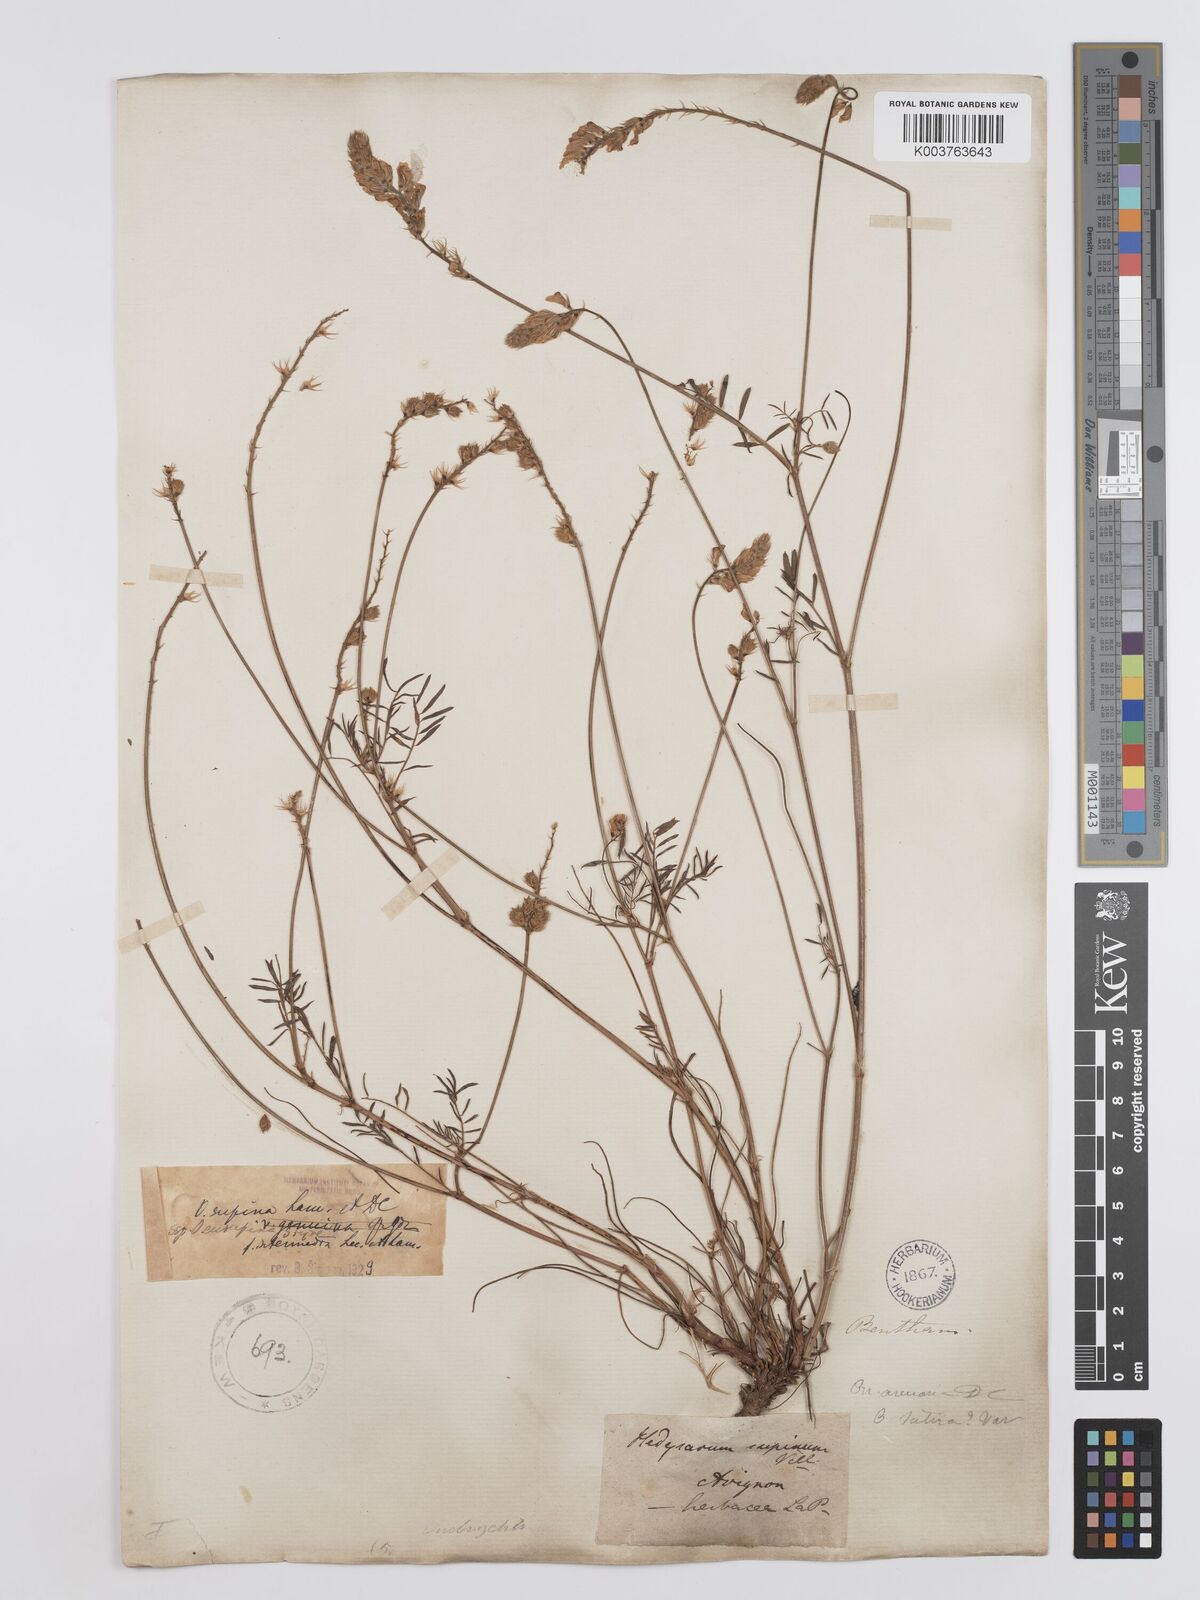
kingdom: Plantae
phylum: Tracheophyta
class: Magnoliopsida
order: Fabales
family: Fabaceae
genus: Onobrychis
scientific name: Onobrychis supina
